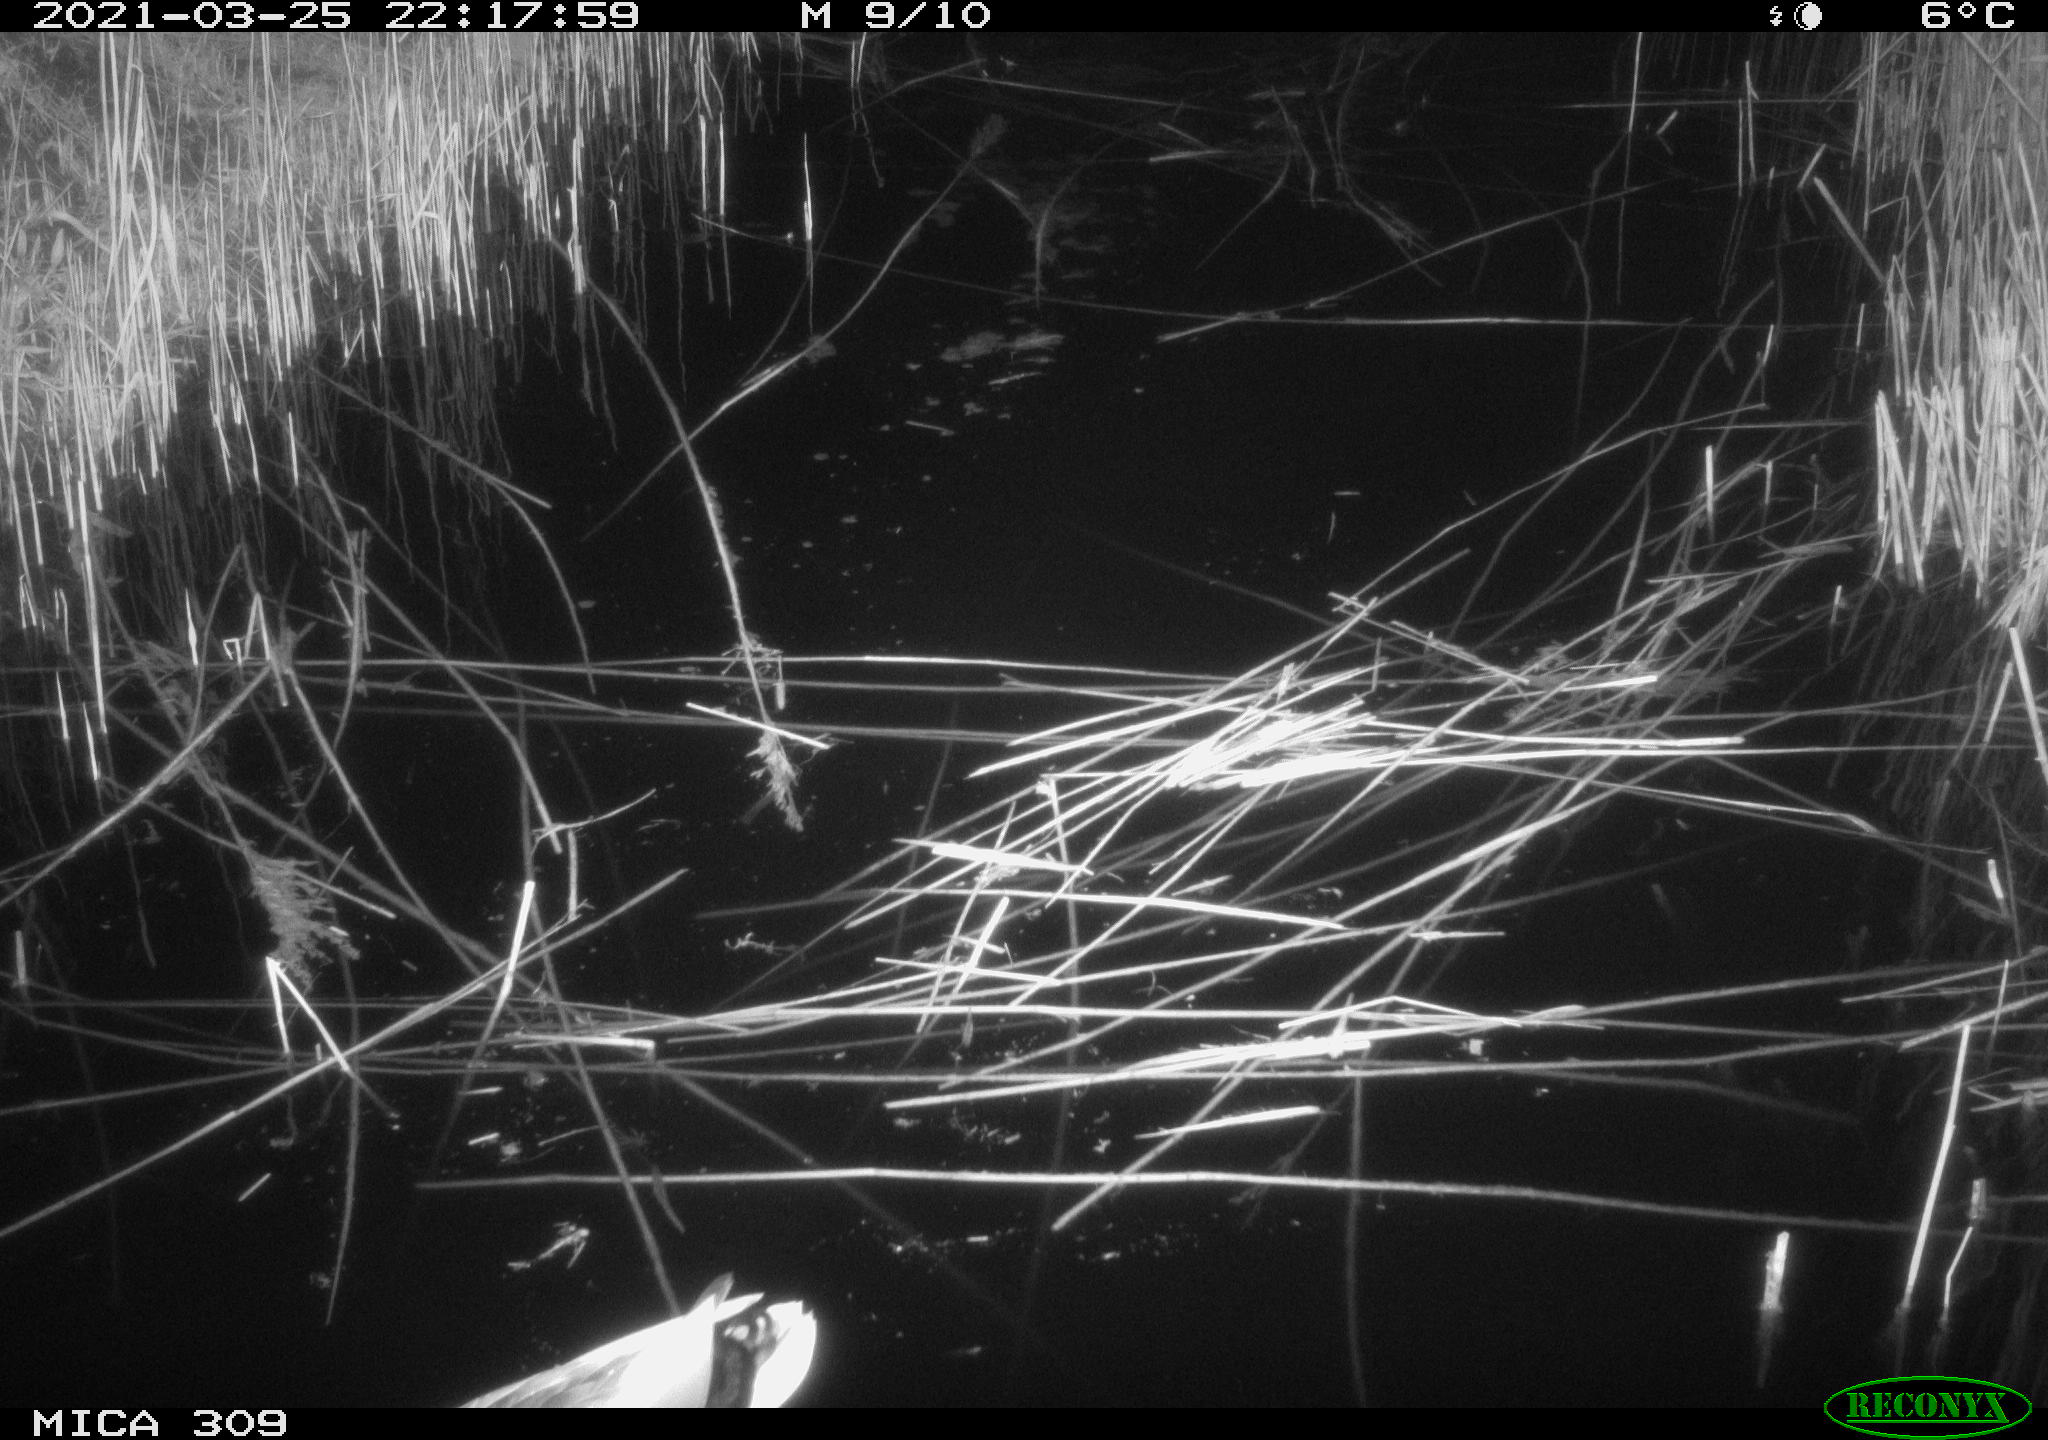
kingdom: Animalia
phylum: Chordata
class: Aves
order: Anseriformes
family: Anatidae
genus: Anas
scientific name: Anas platyrhynchos
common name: Mallard
